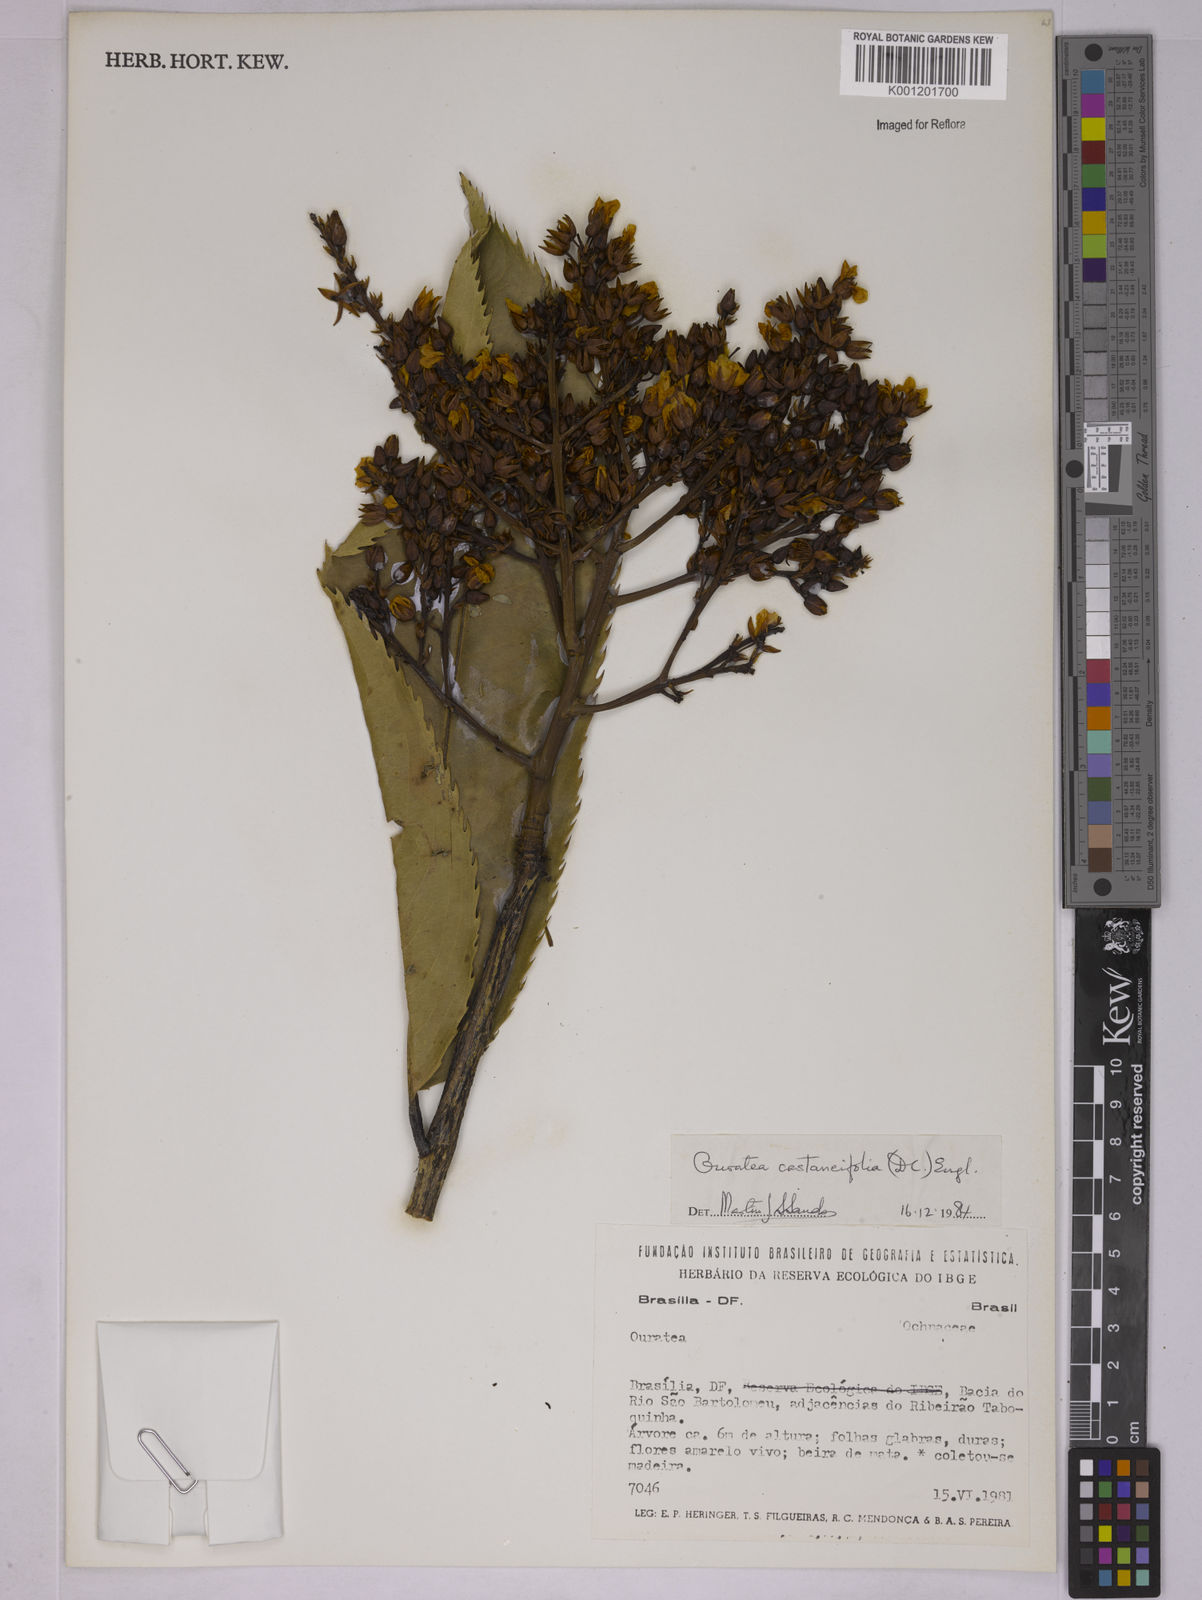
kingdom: Plantae
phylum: Tracheophyta
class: Magnoliopsida
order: Malpighiales
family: Ochnaceae
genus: Ouratea
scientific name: Ouratea castaneifolia
